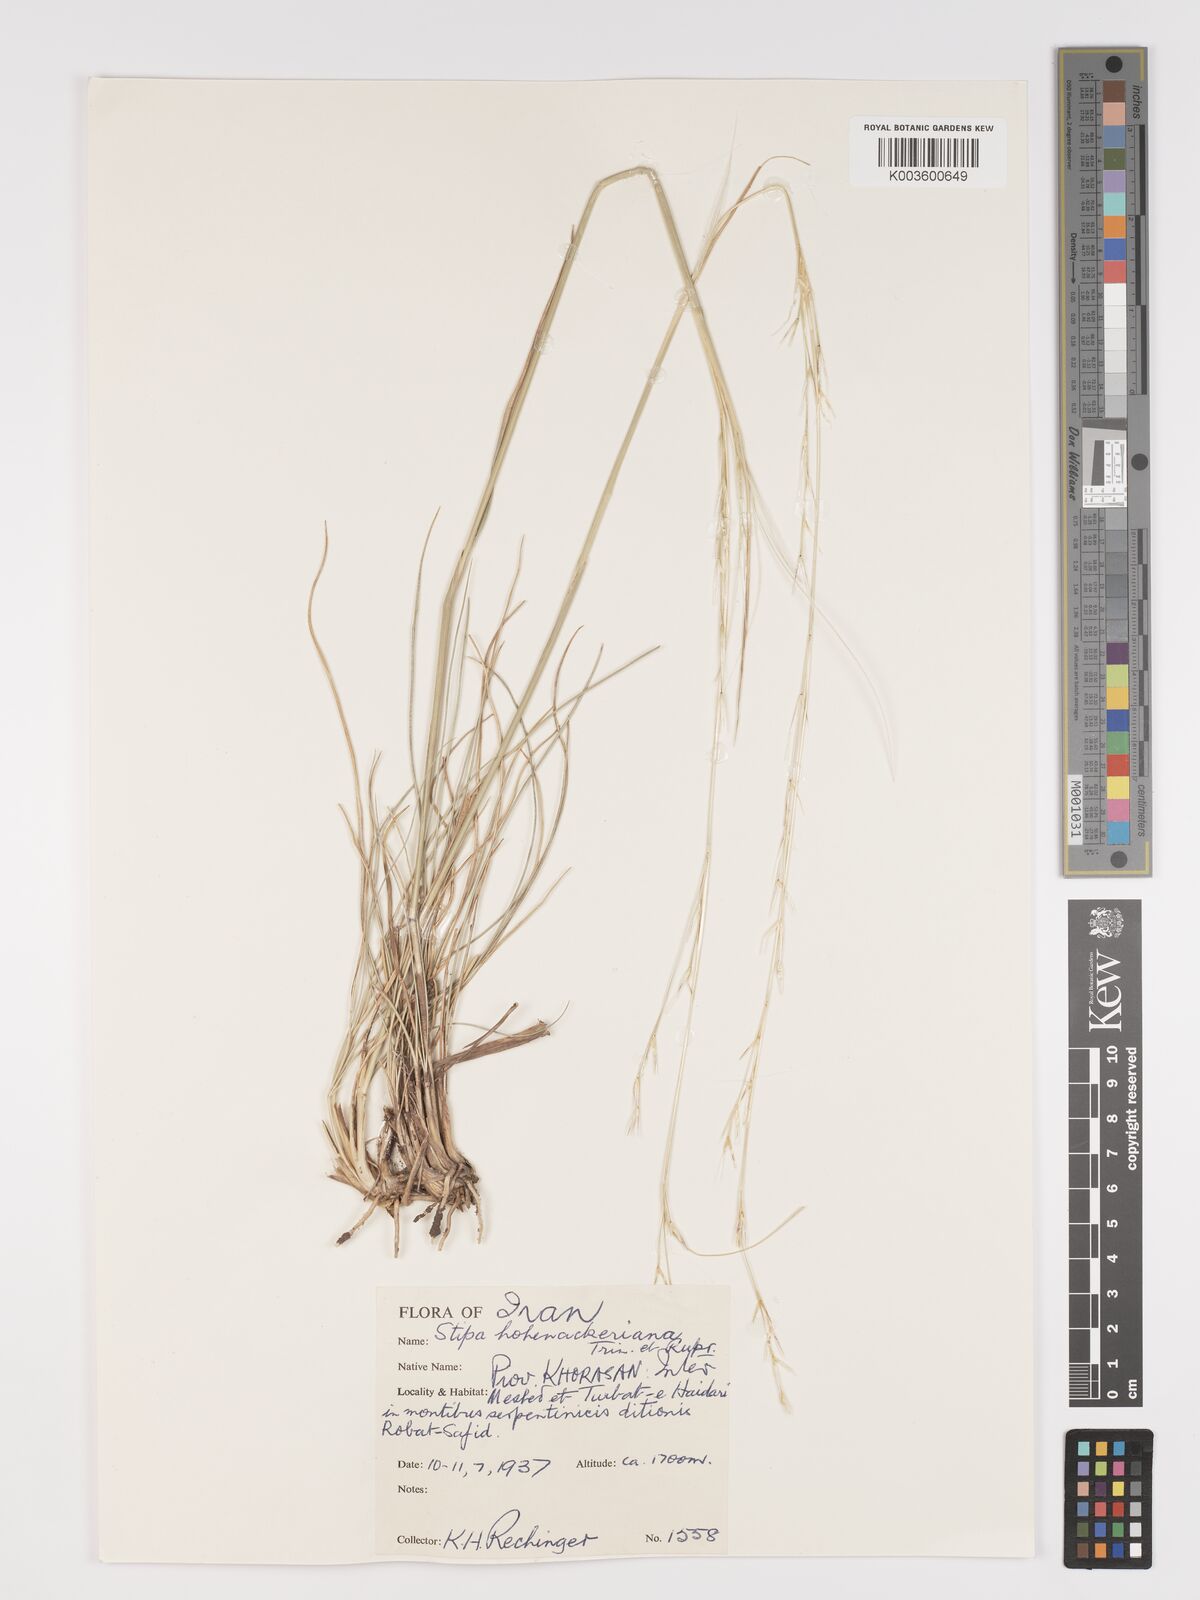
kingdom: Plantae
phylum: Tracheophyta
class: Liliopsida
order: Poales
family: Poaceae
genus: Stipa
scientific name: Stipa hohenackeriana
